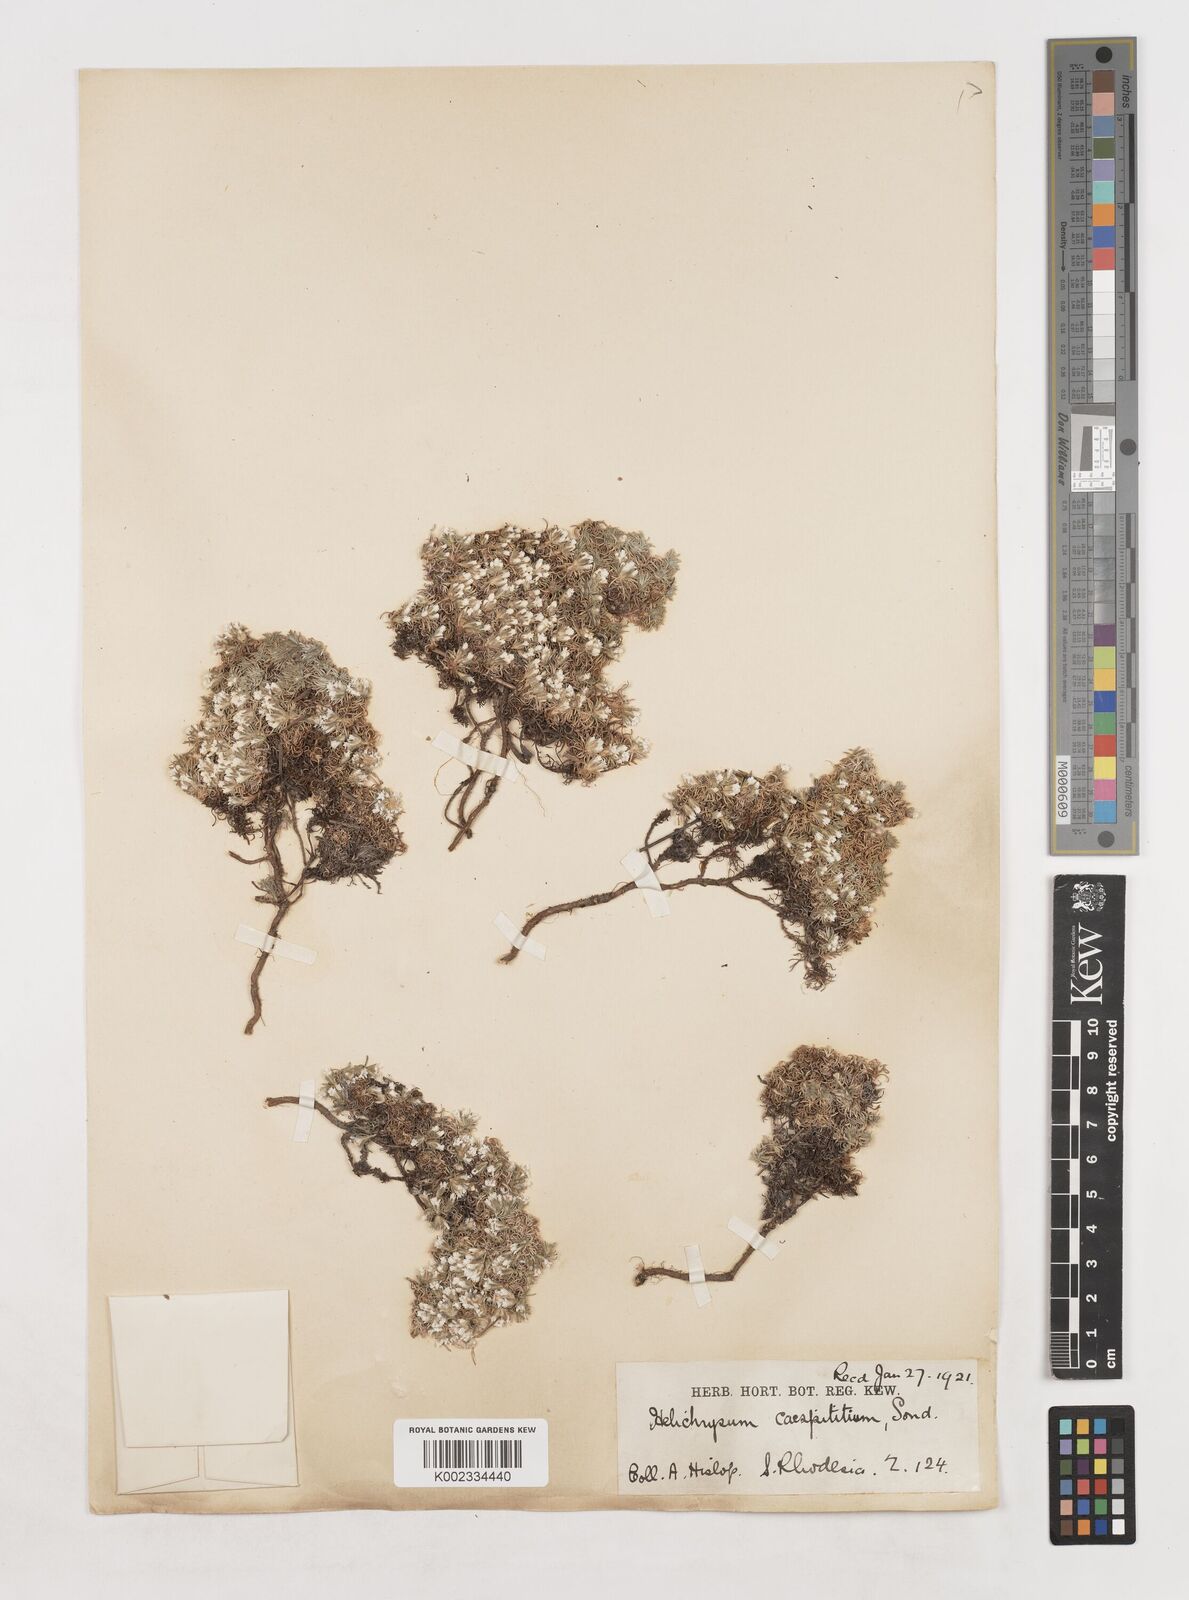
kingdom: Plantae
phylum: Tracheophyta
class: Magnoliopsida
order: Asterales
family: Asteraceae
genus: Helichrysum
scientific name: Helichrysum caespititium
